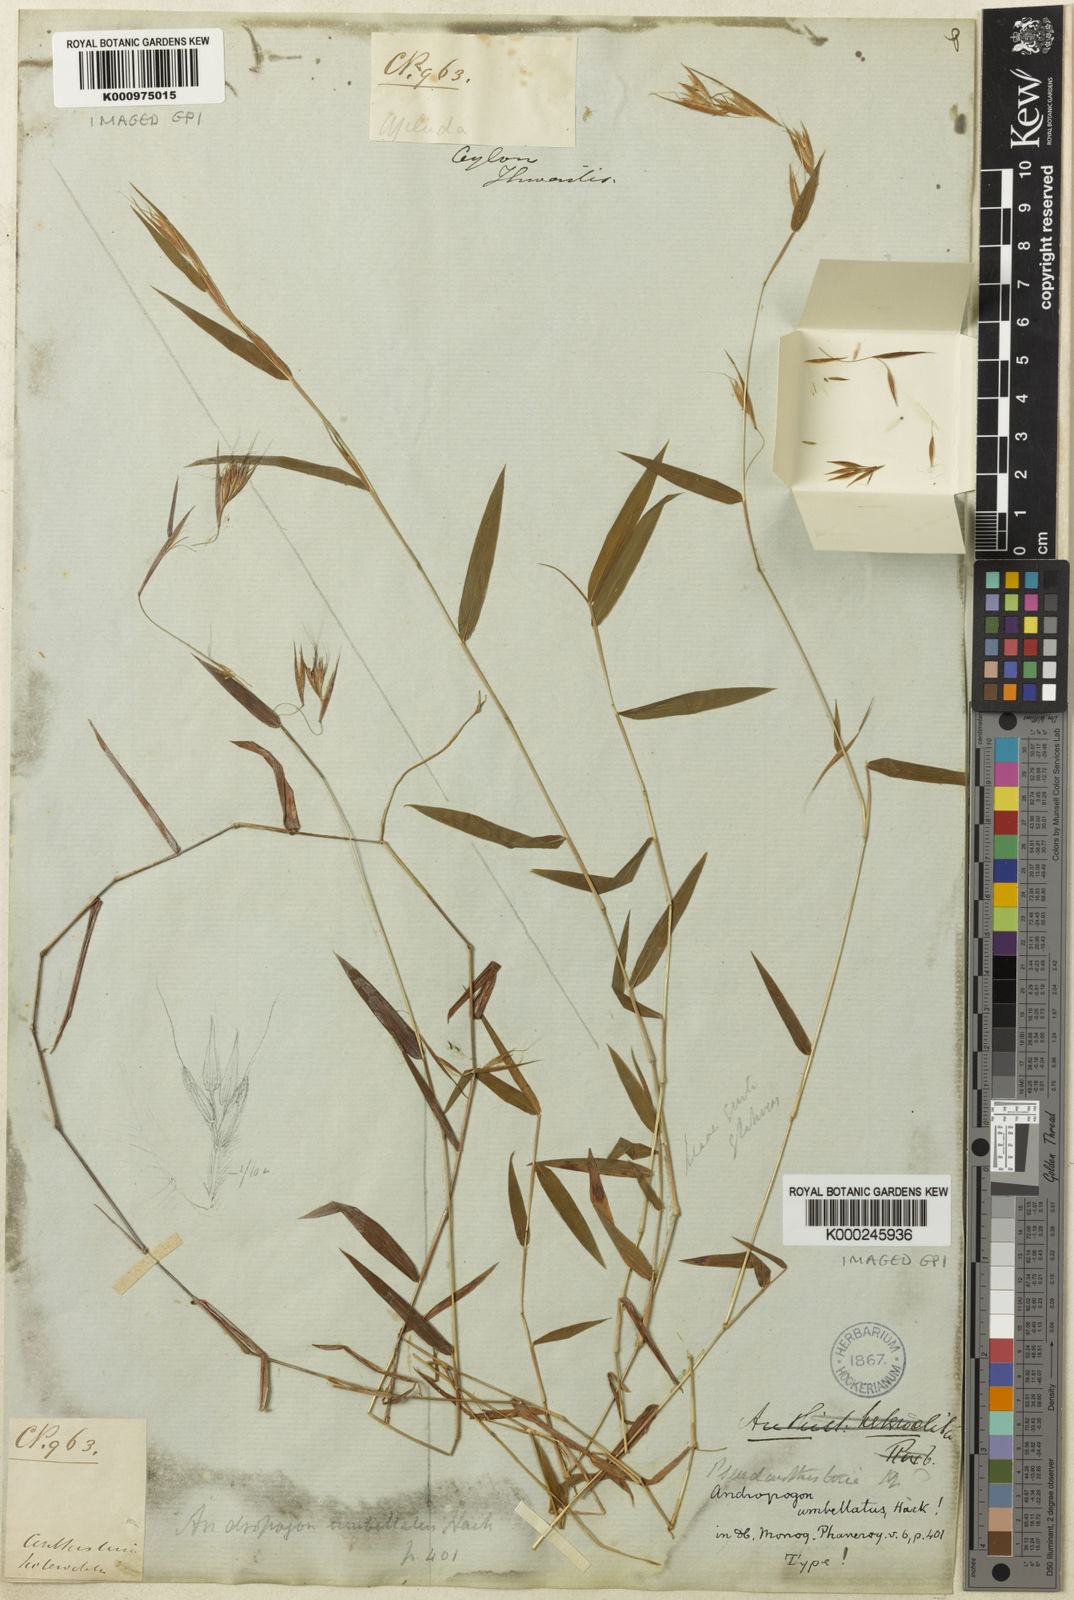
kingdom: Plantae
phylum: Tracheophyta
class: Liliopsida
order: Poales
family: Poaceae
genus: Pseudanthistiria
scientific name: Pseudanthistiria umbellata
